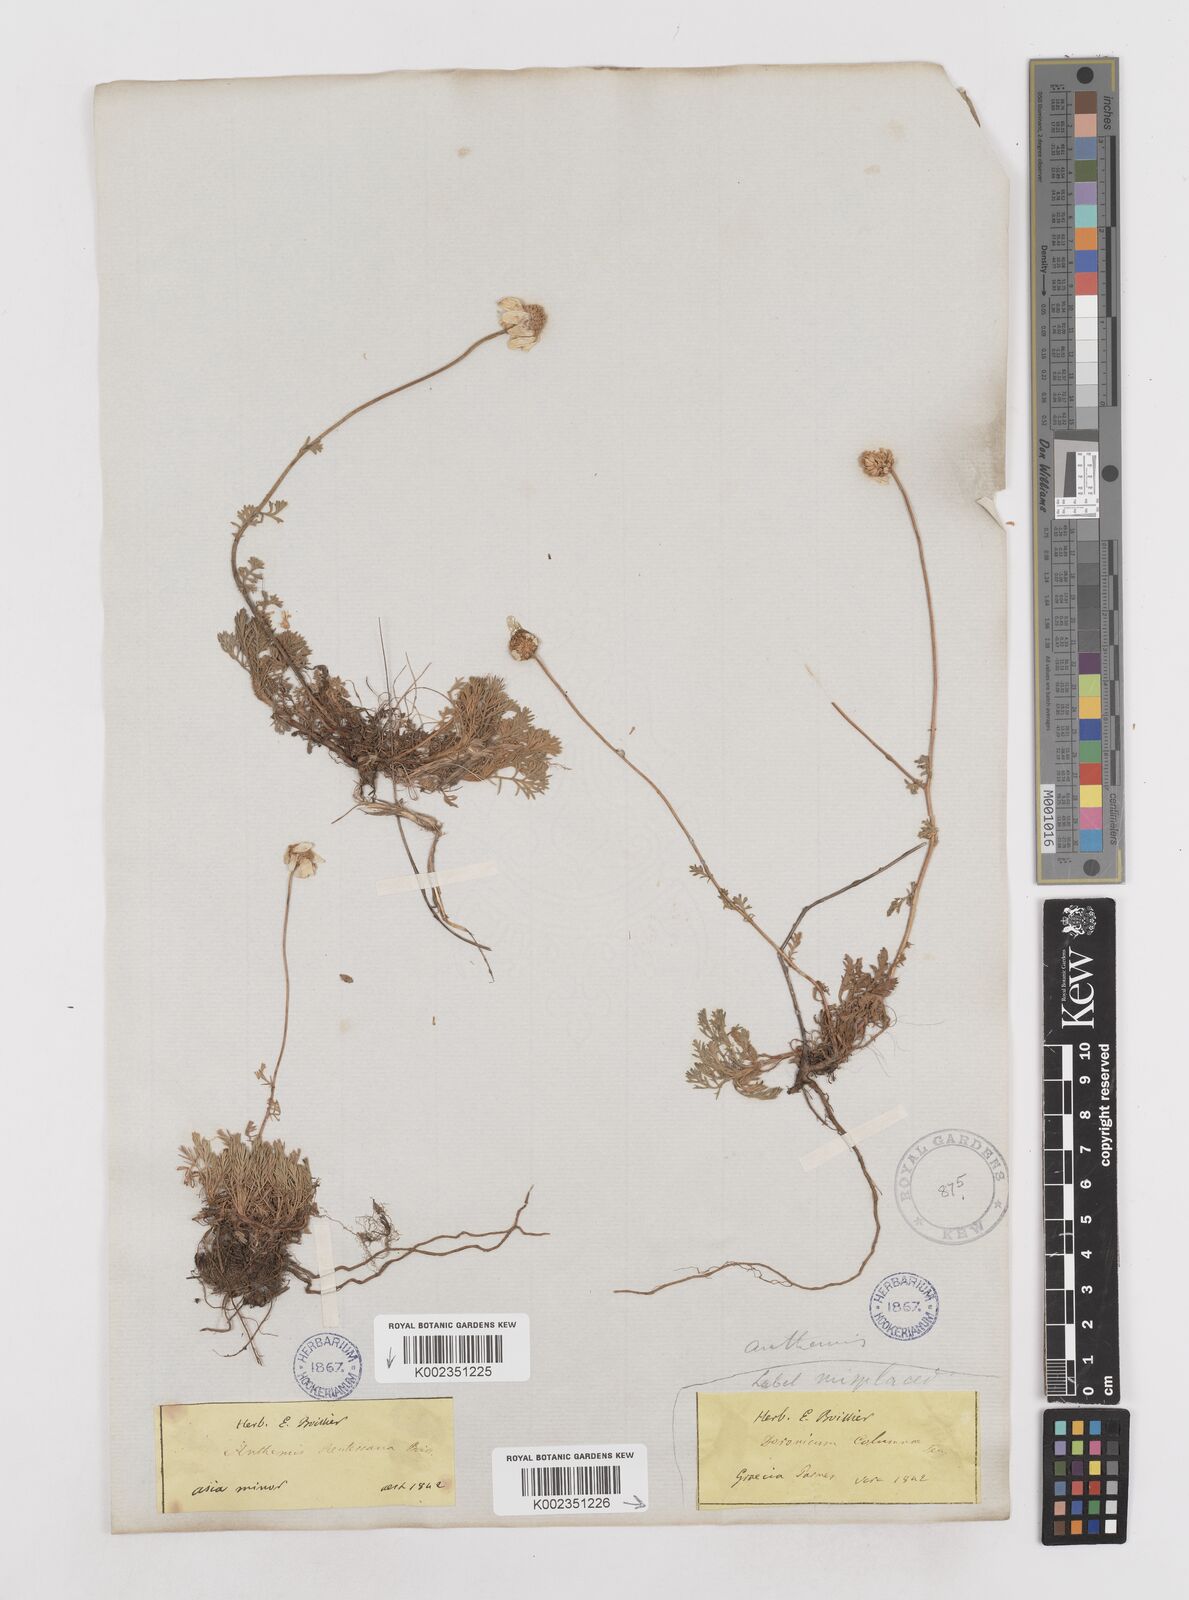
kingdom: Plantae
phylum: Tracheophyta
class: Magnoliopsida
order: Asterales
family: Asteraceae
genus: Anthemis
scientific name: Anthemis cretica
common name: Mountain dog-daisy
